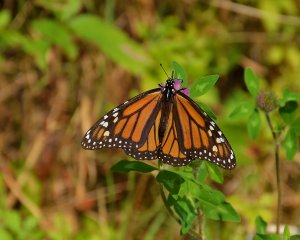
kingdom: Animalia
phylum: Arthropoda
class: Insecta
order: Lepidoptera
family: Nymphalidae
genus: Danaus
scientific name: Danaus plexippus
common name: Monarch
